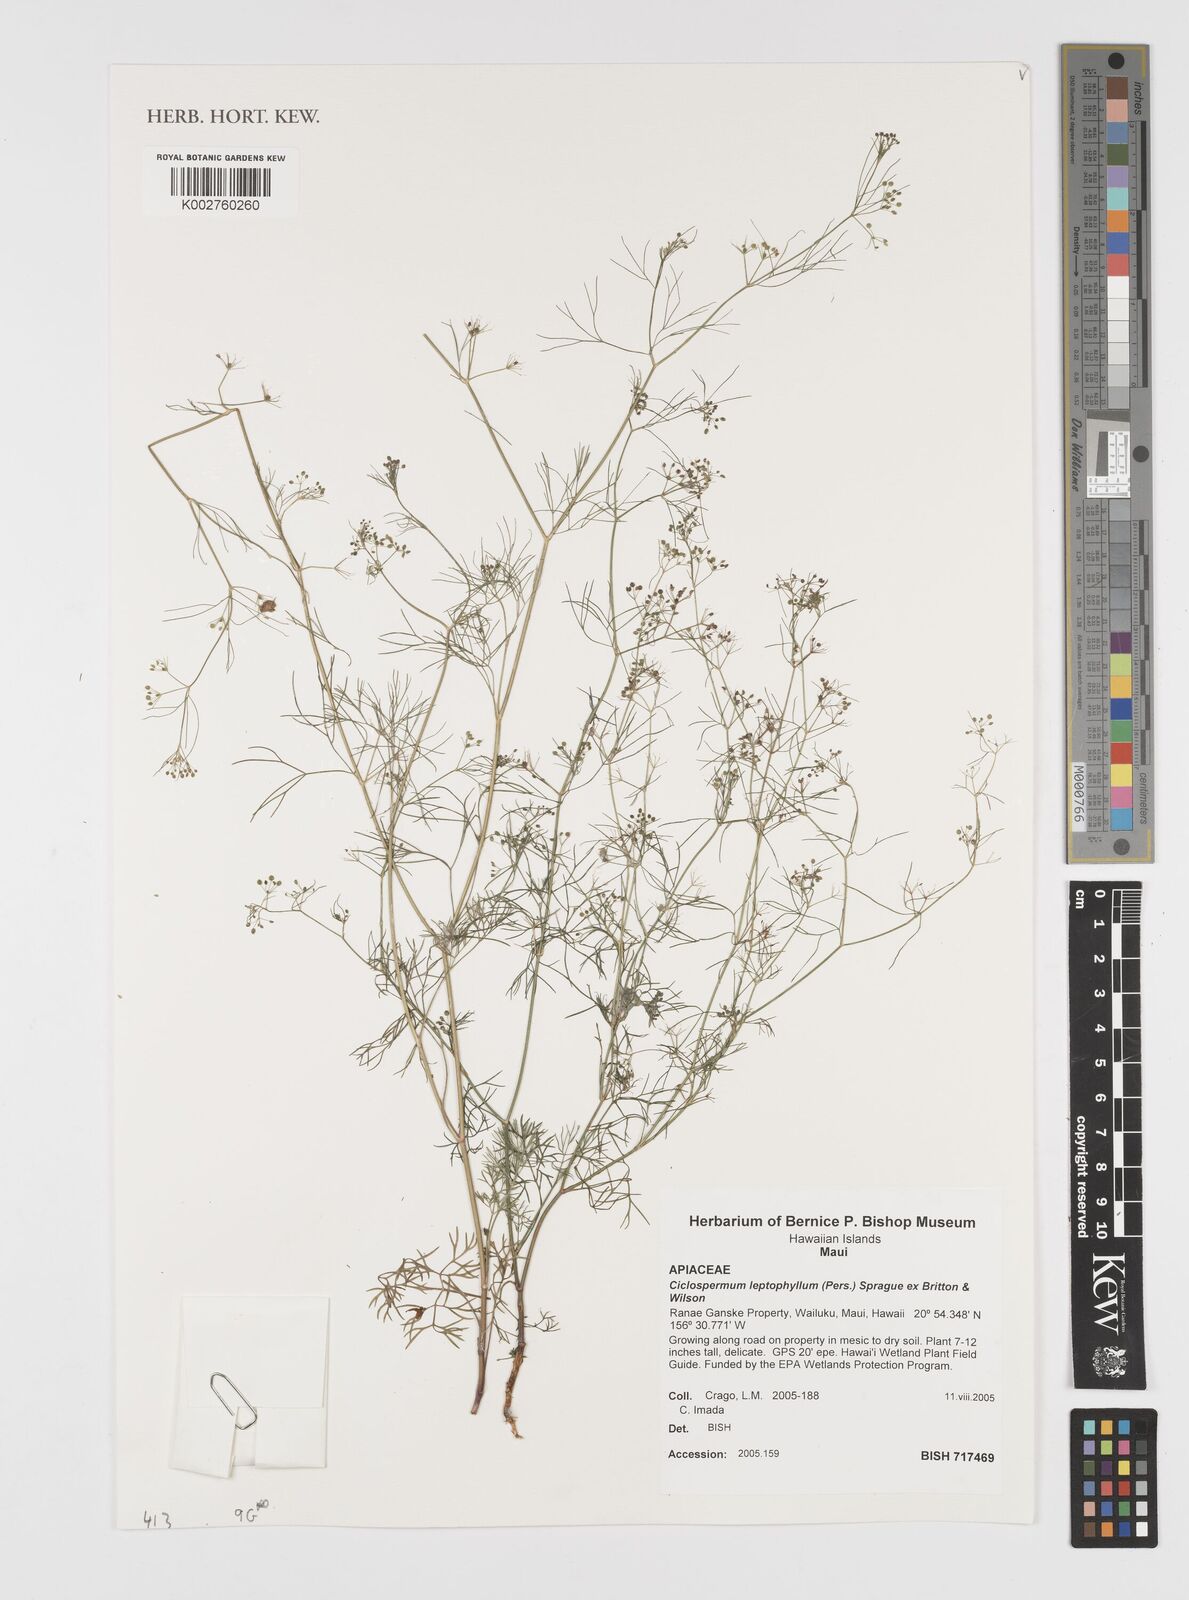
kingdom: Plantae
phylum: Tracheophyta
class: Magnoliopsida
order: Apiales
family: Apiaceae
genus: Cyclospermum
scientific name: Cyclospermum leptophyllum
